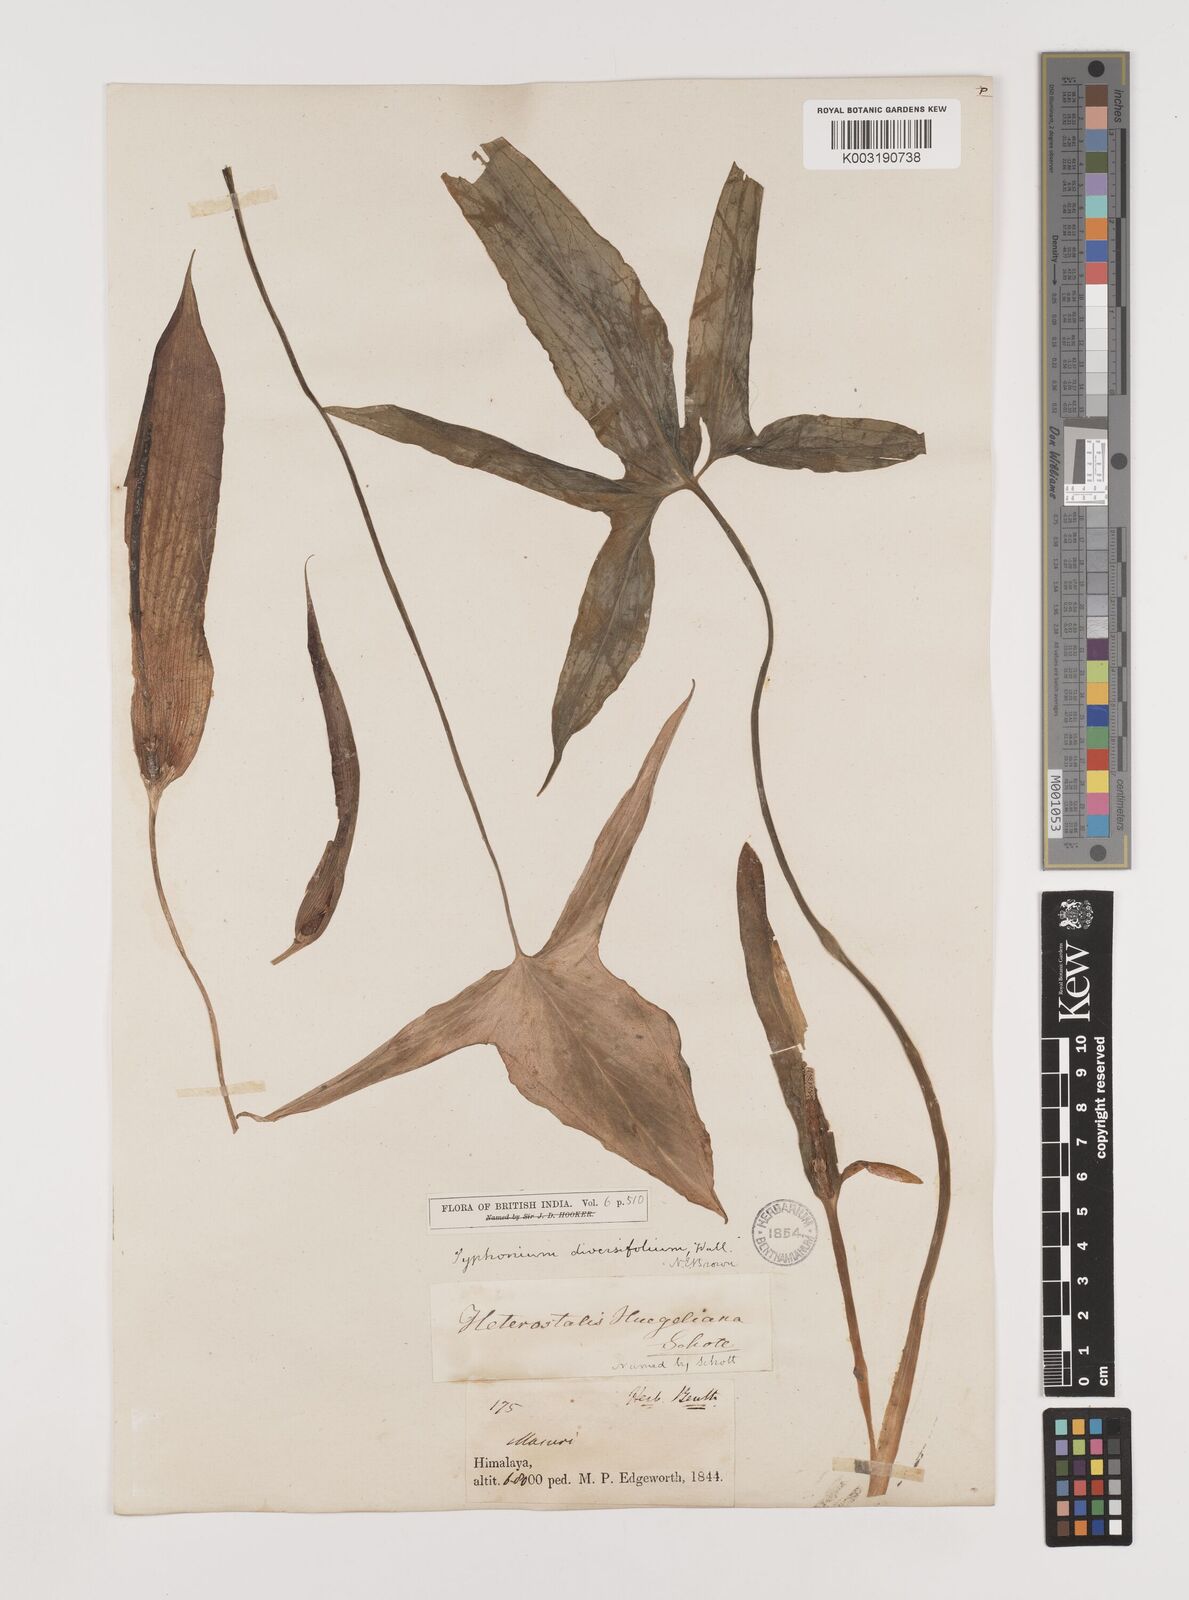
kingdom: Plantae
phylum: Tracheophyta
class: Liliopsida
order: Alismatales
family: Araceae
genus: Sauromatum
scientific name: Sauromatum diversifolium
